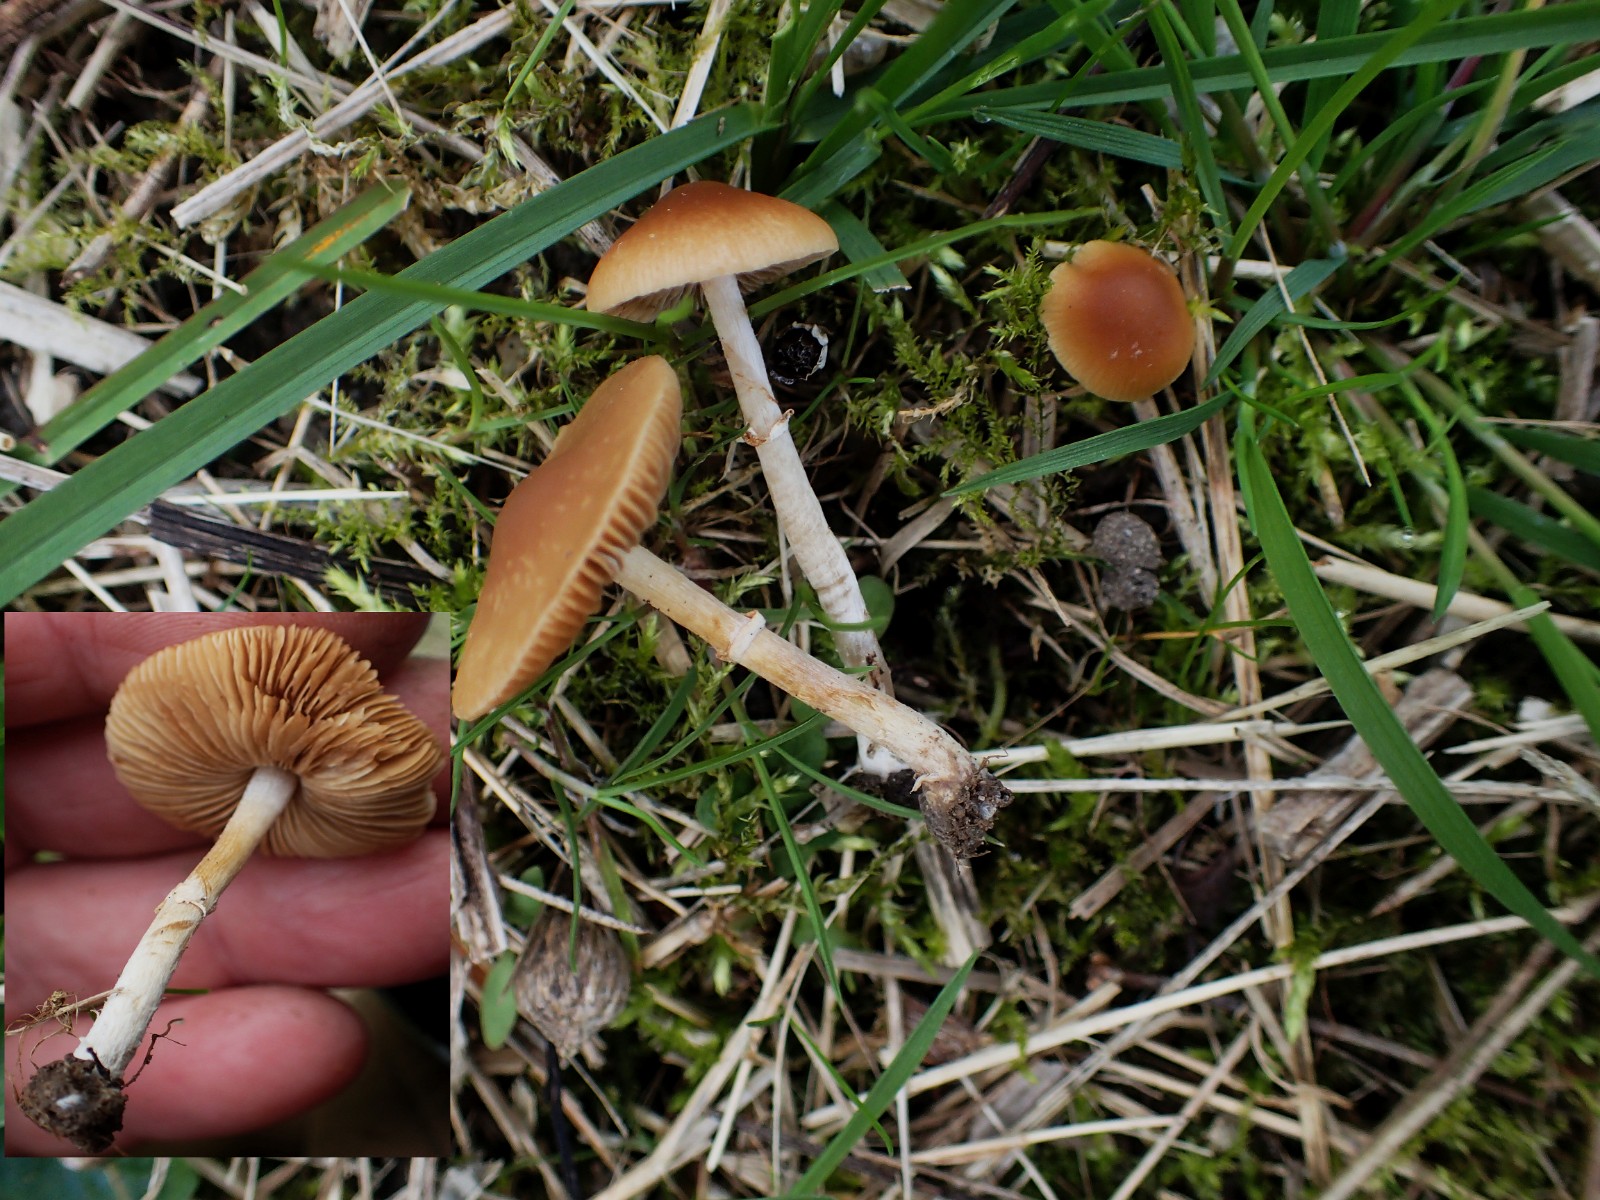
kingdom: Fungi
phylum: Basidiomycota
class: Agaricomycetes
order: Agaricales
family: Bolbitiaceae
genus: Pholiotina
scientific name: Pholiotina
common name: dansehat
